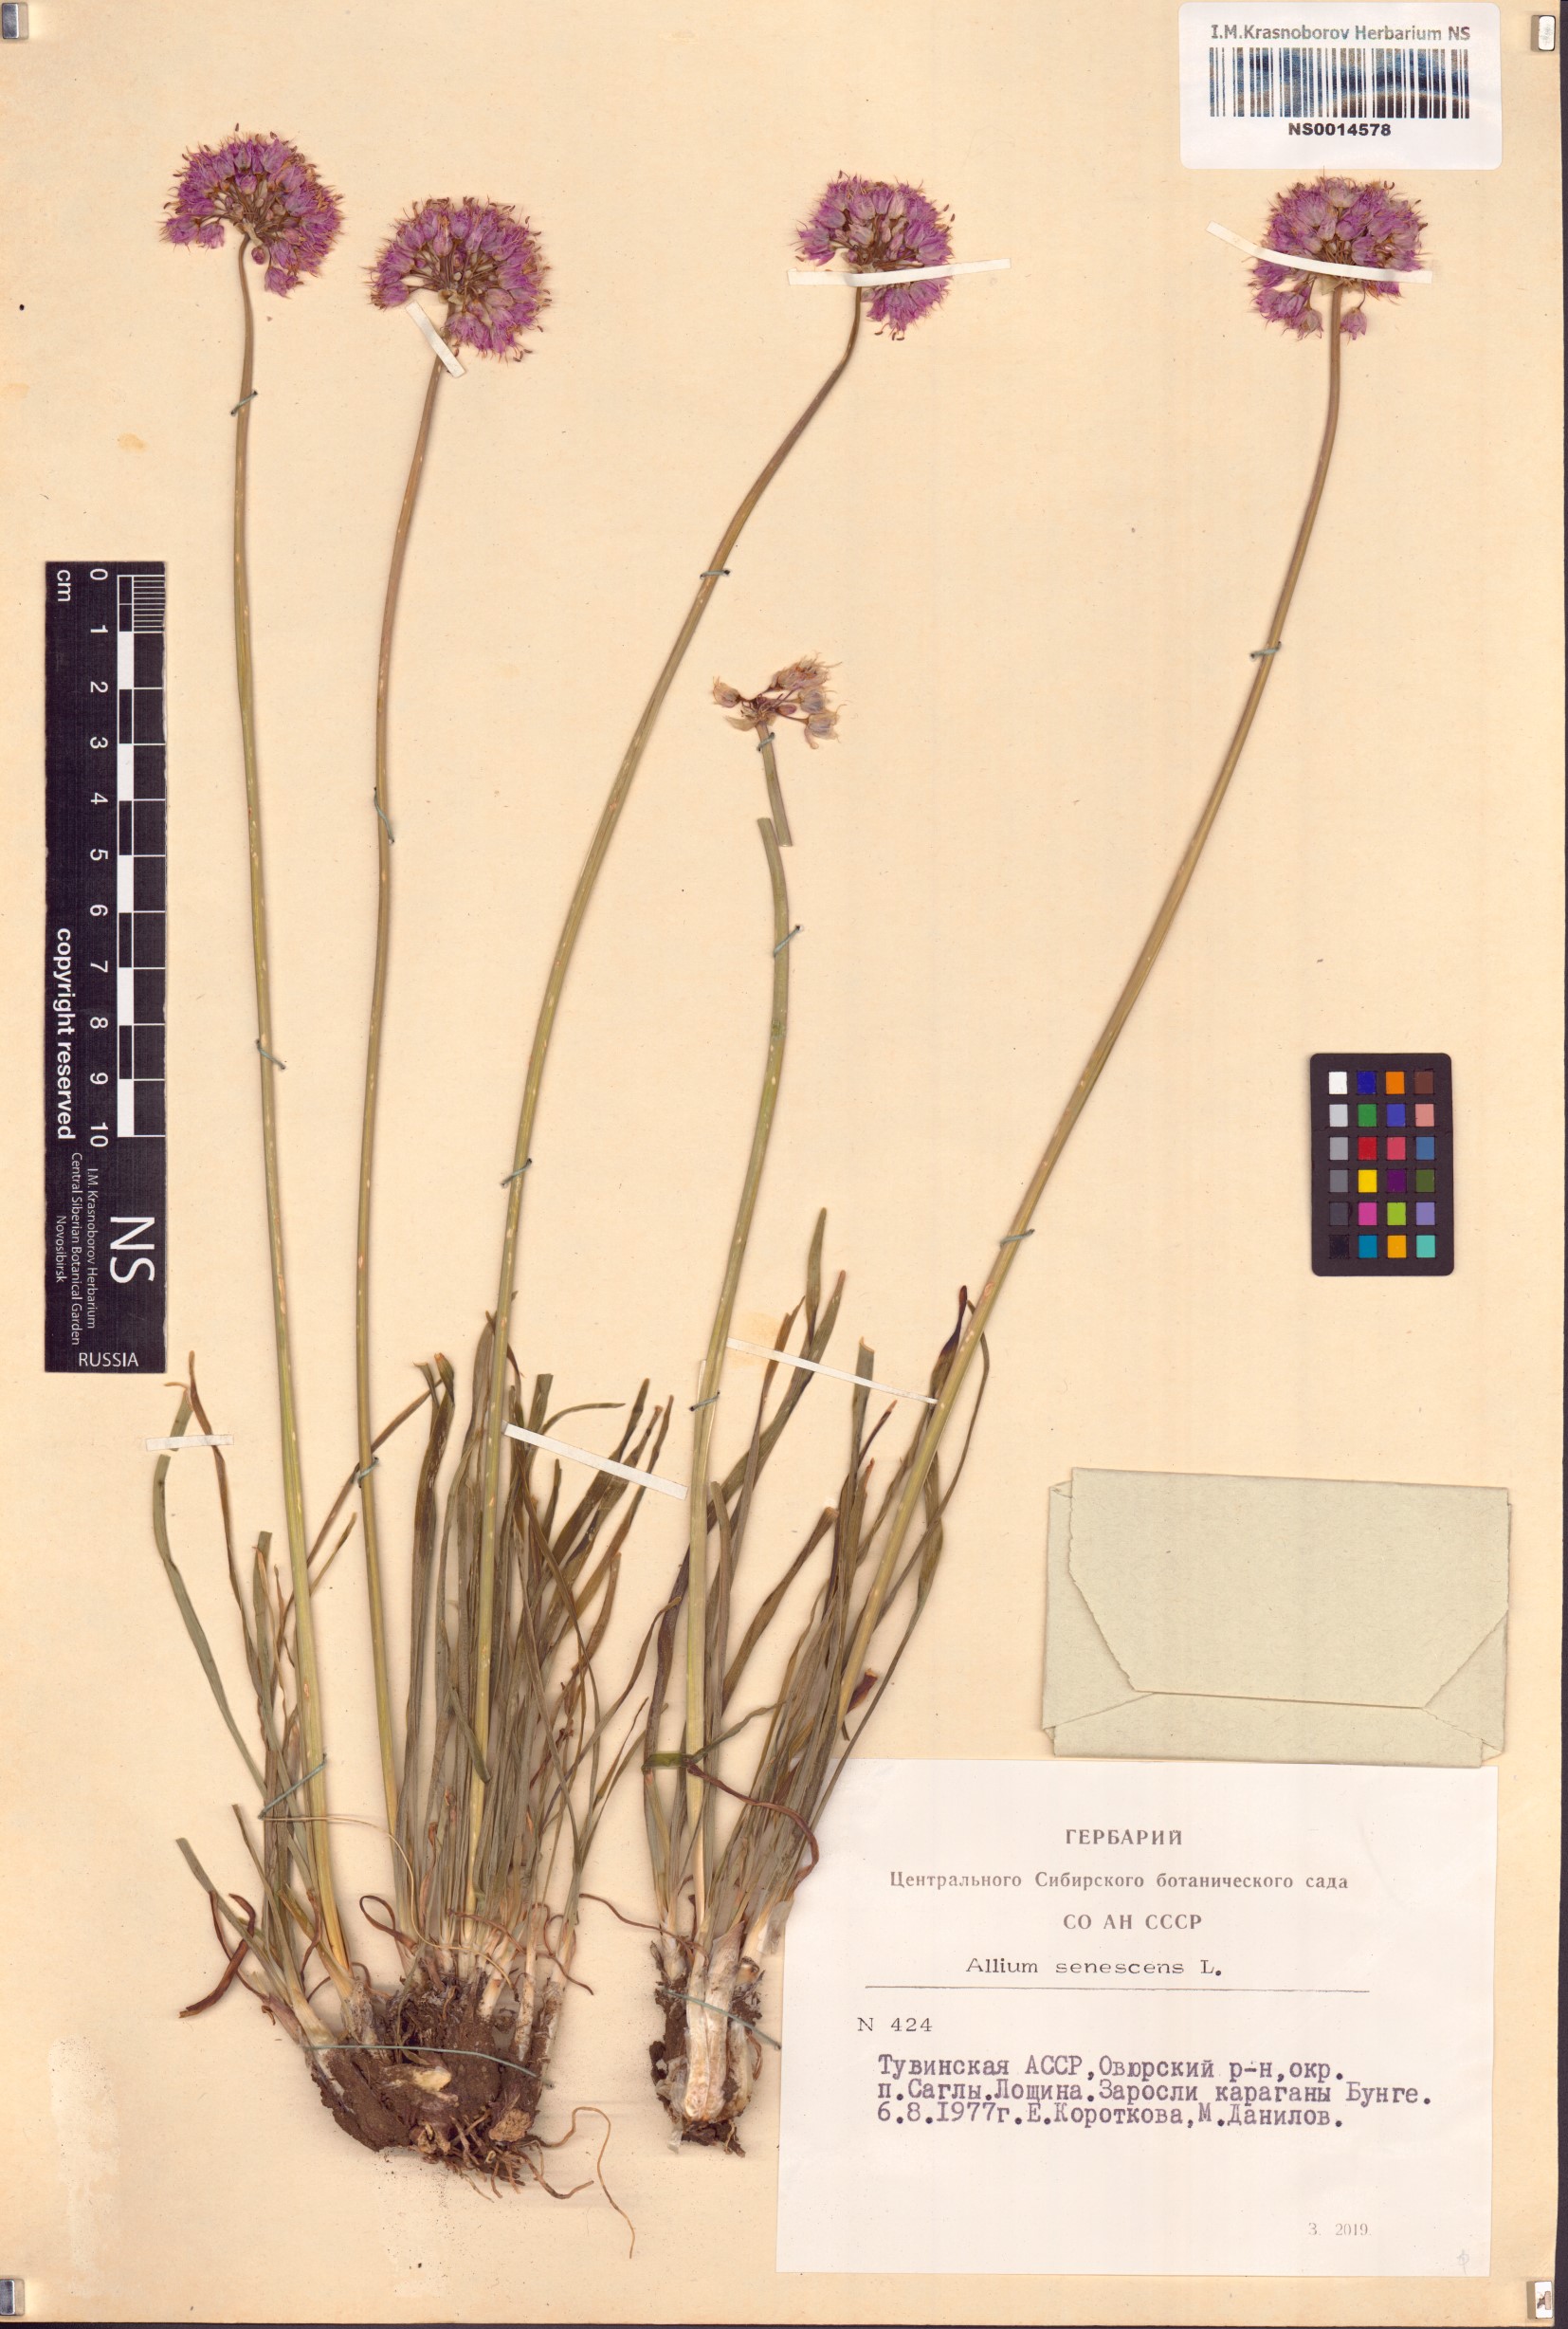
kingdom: Plantae
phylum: Tracheophyta
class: Liliopsida
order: Asparagales
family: Amaryllidaceae
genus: Allium
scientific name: Allium senescens
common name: German garlic
